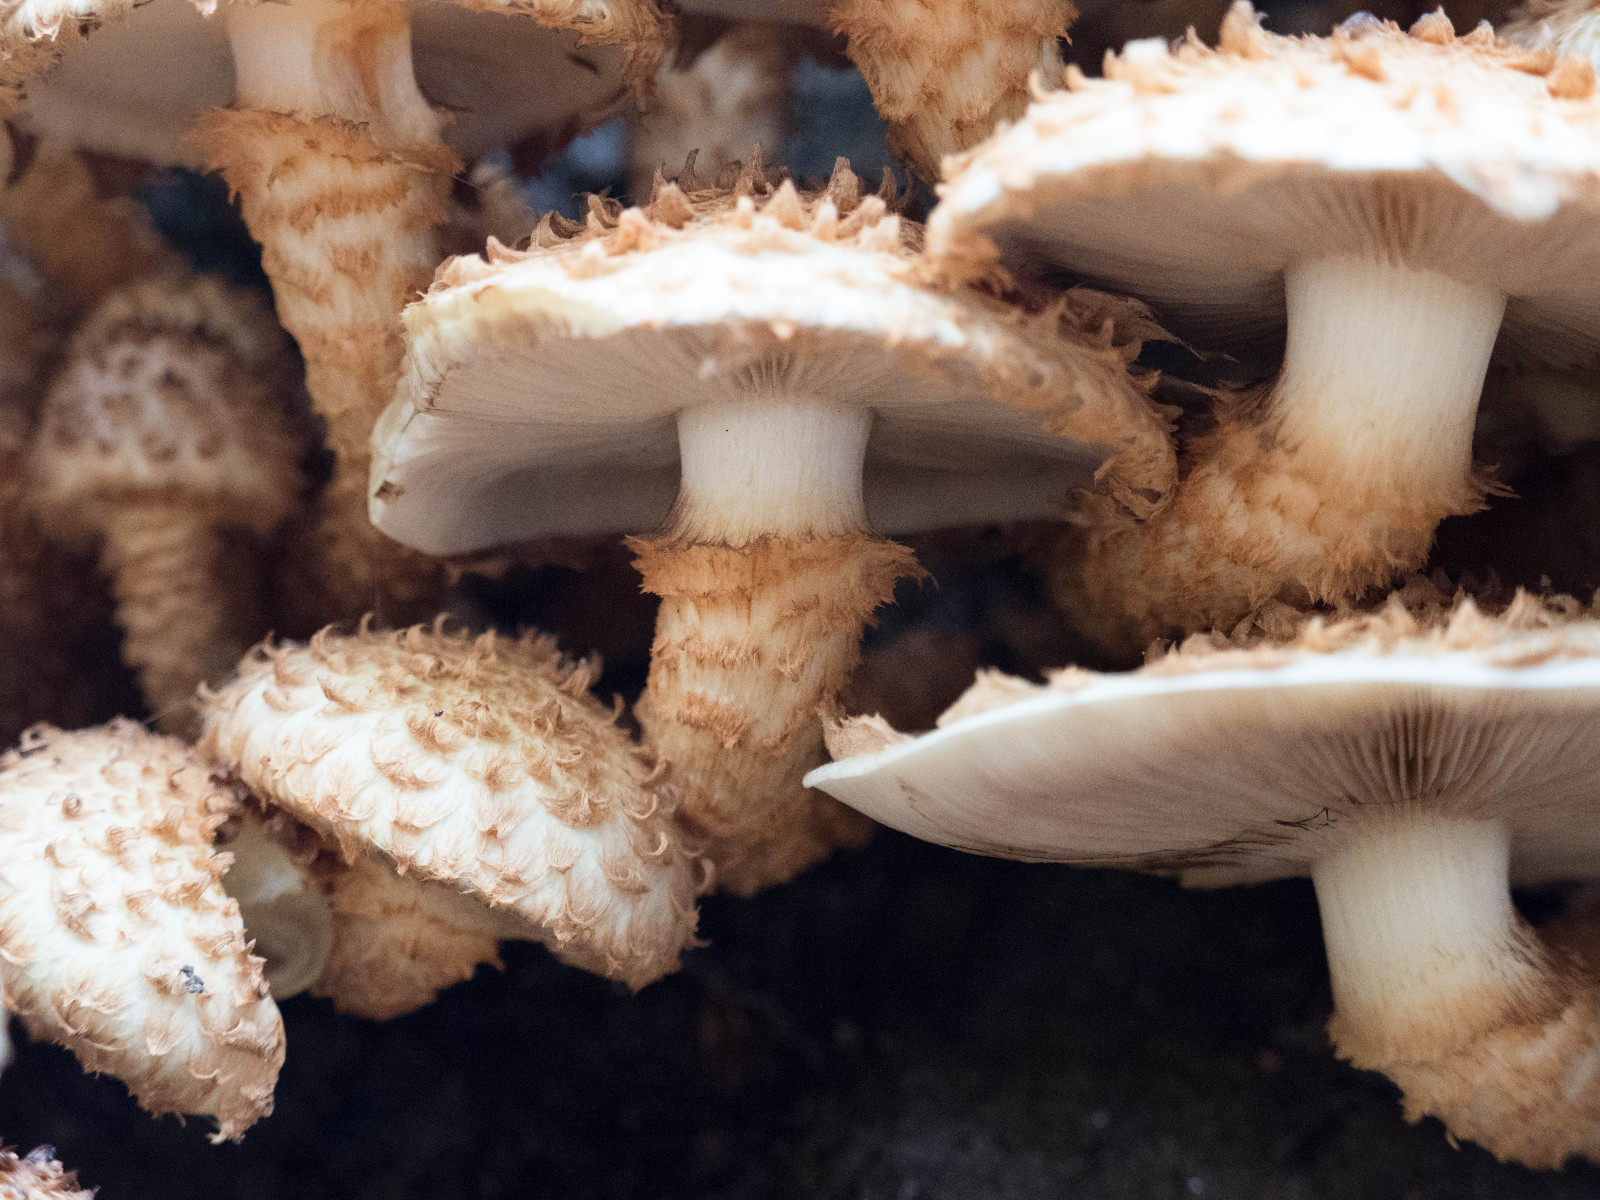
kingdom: Fungi
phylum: Basidiomycota
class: Agaricomycetes
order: Agaricales
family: Strophariaceae
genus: Pholiota
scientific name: Pholiota squarrosa
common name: krumskællet skælhat
